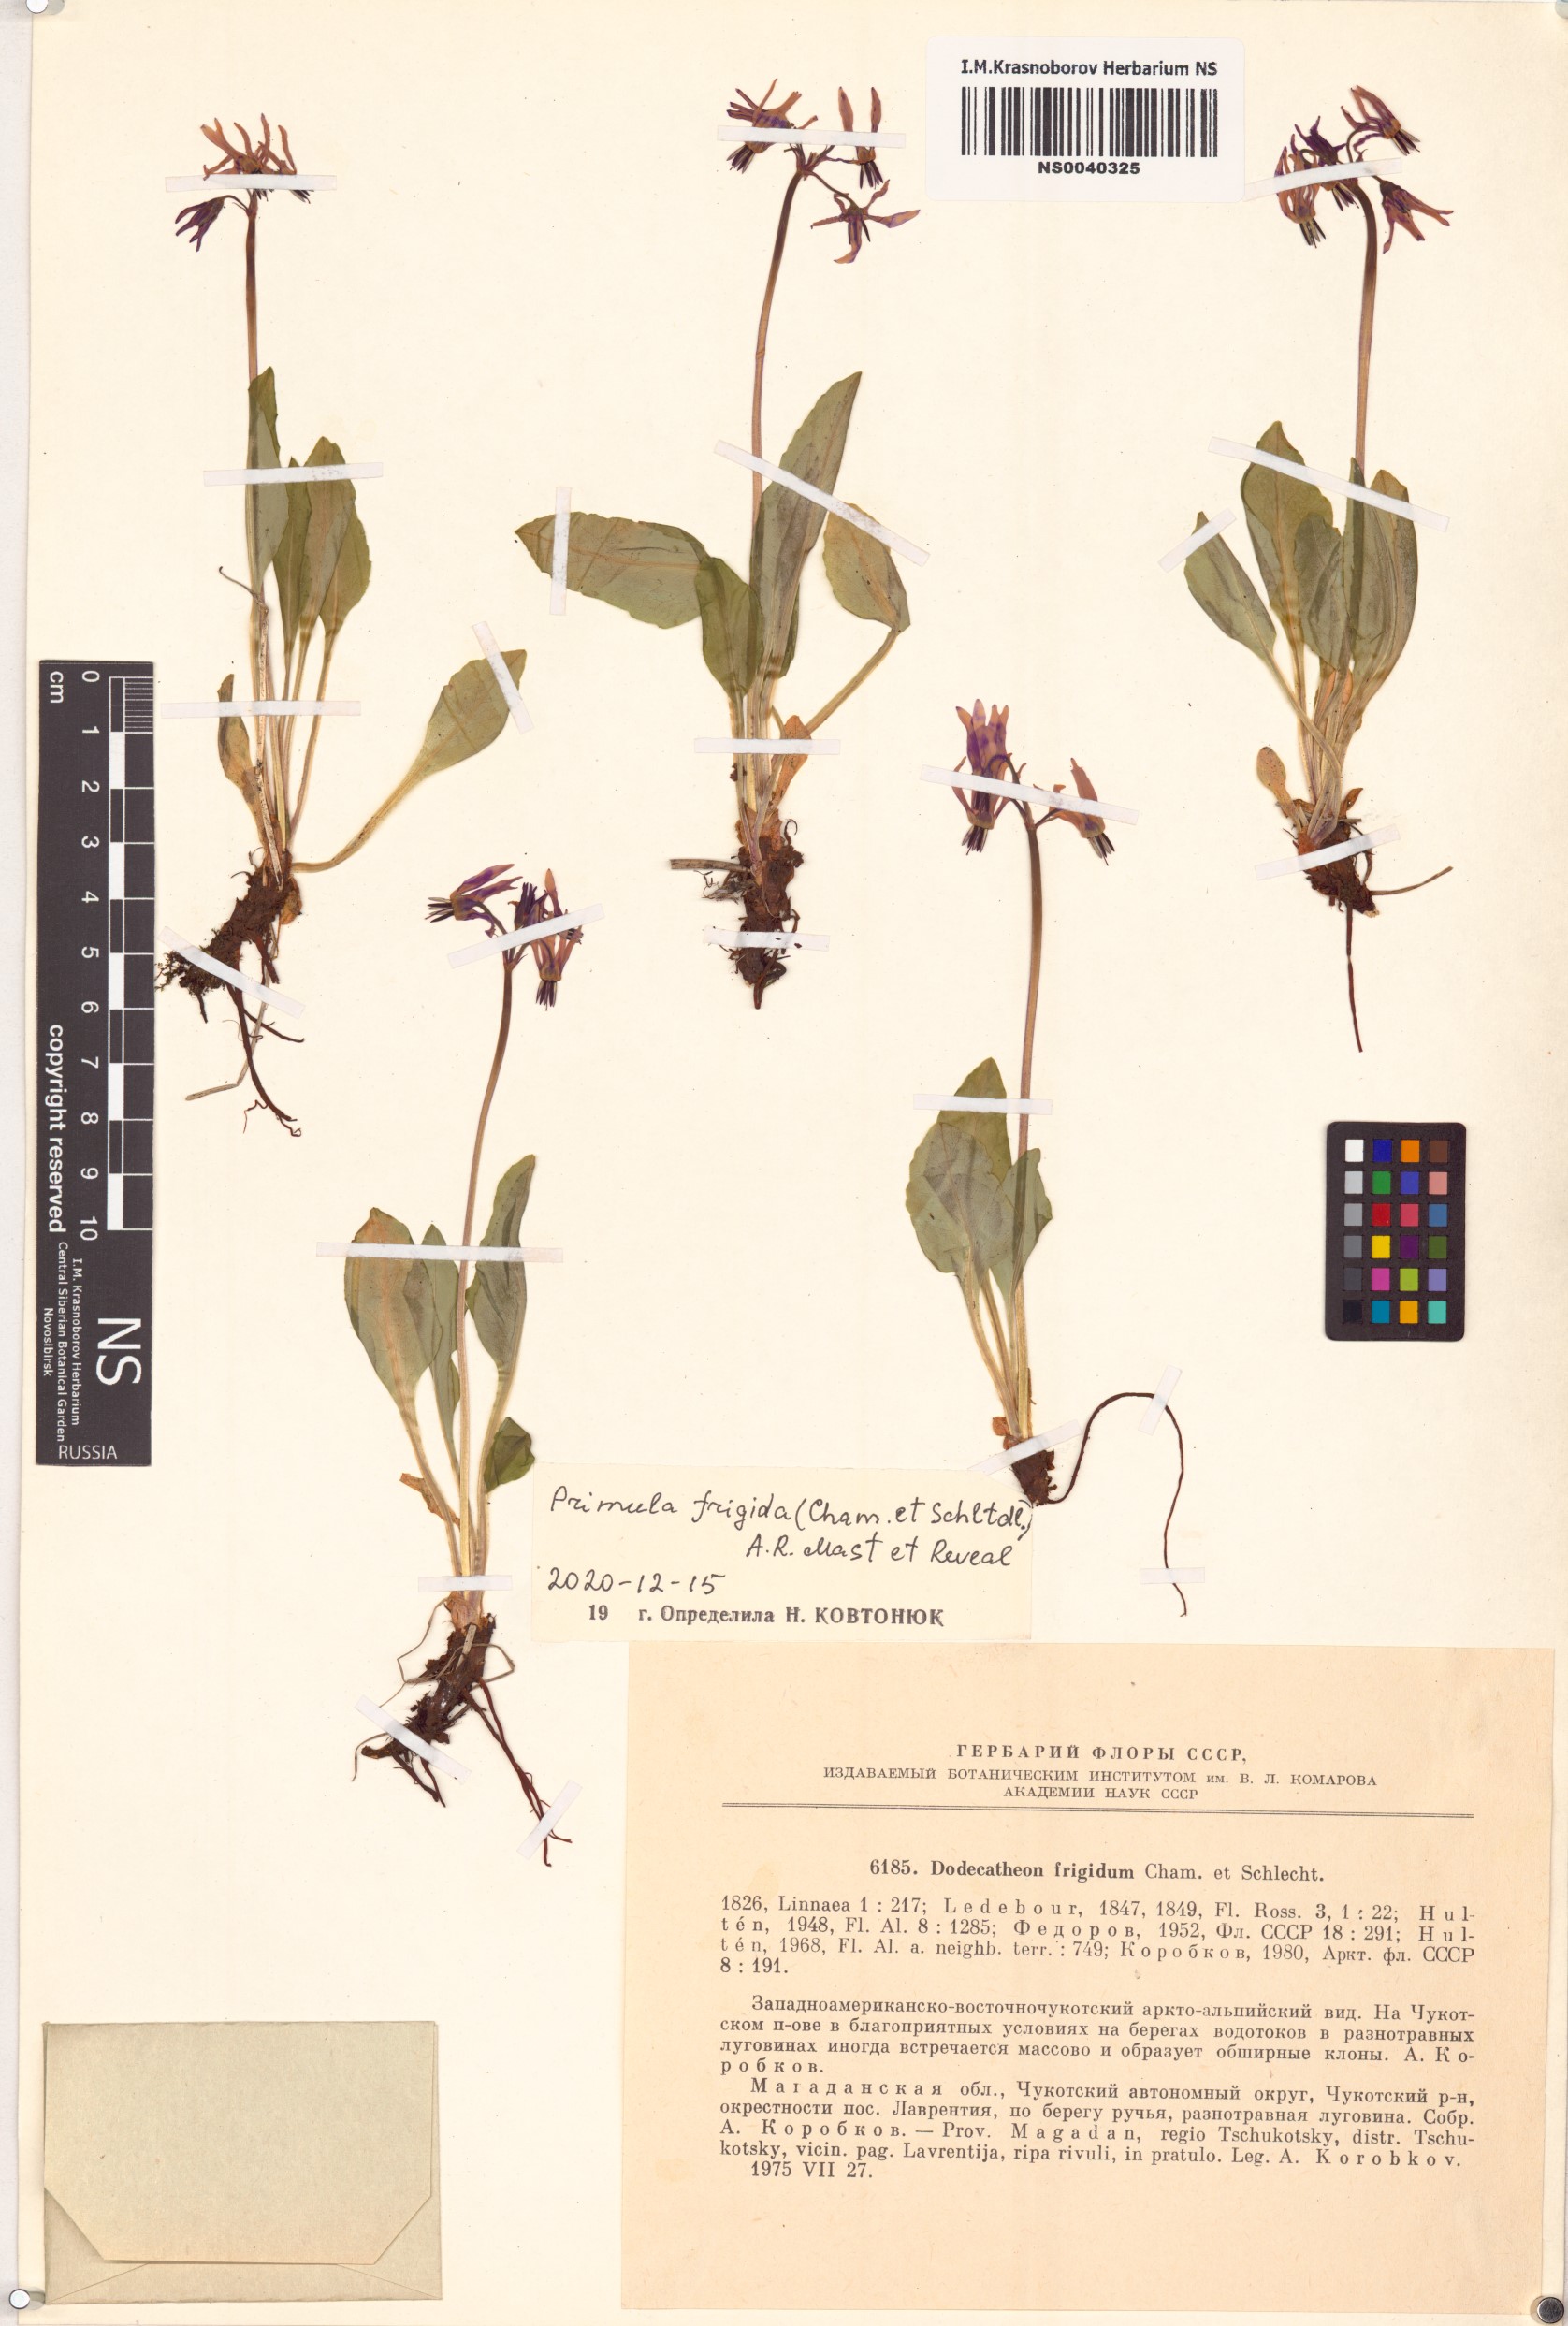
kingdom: Plantae
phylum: Tracheophyta
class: Magnoliopsida
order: Ericales
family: Primulaceae
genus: Dodecatheon
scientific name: Dodecatheon frigidum
